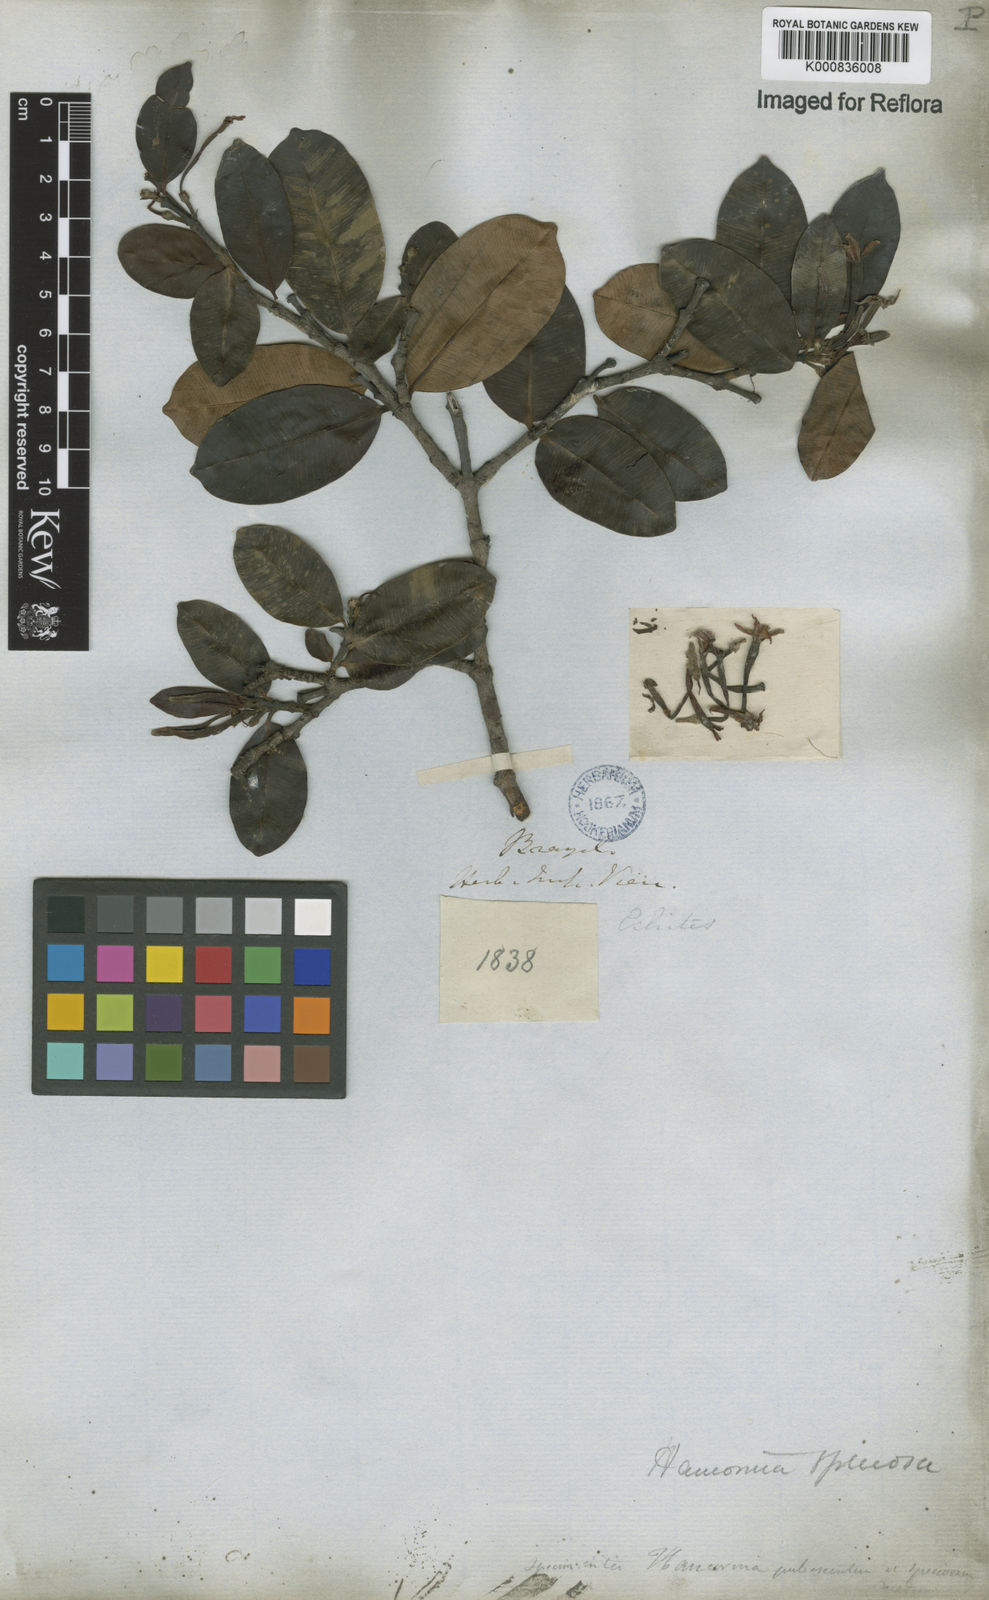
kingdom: Plantae
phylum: Tracheophyta
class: Magnoliopsida
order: Gentianales
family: Apocynaceae
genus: Hancornia
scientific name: Hancornia speciosa
